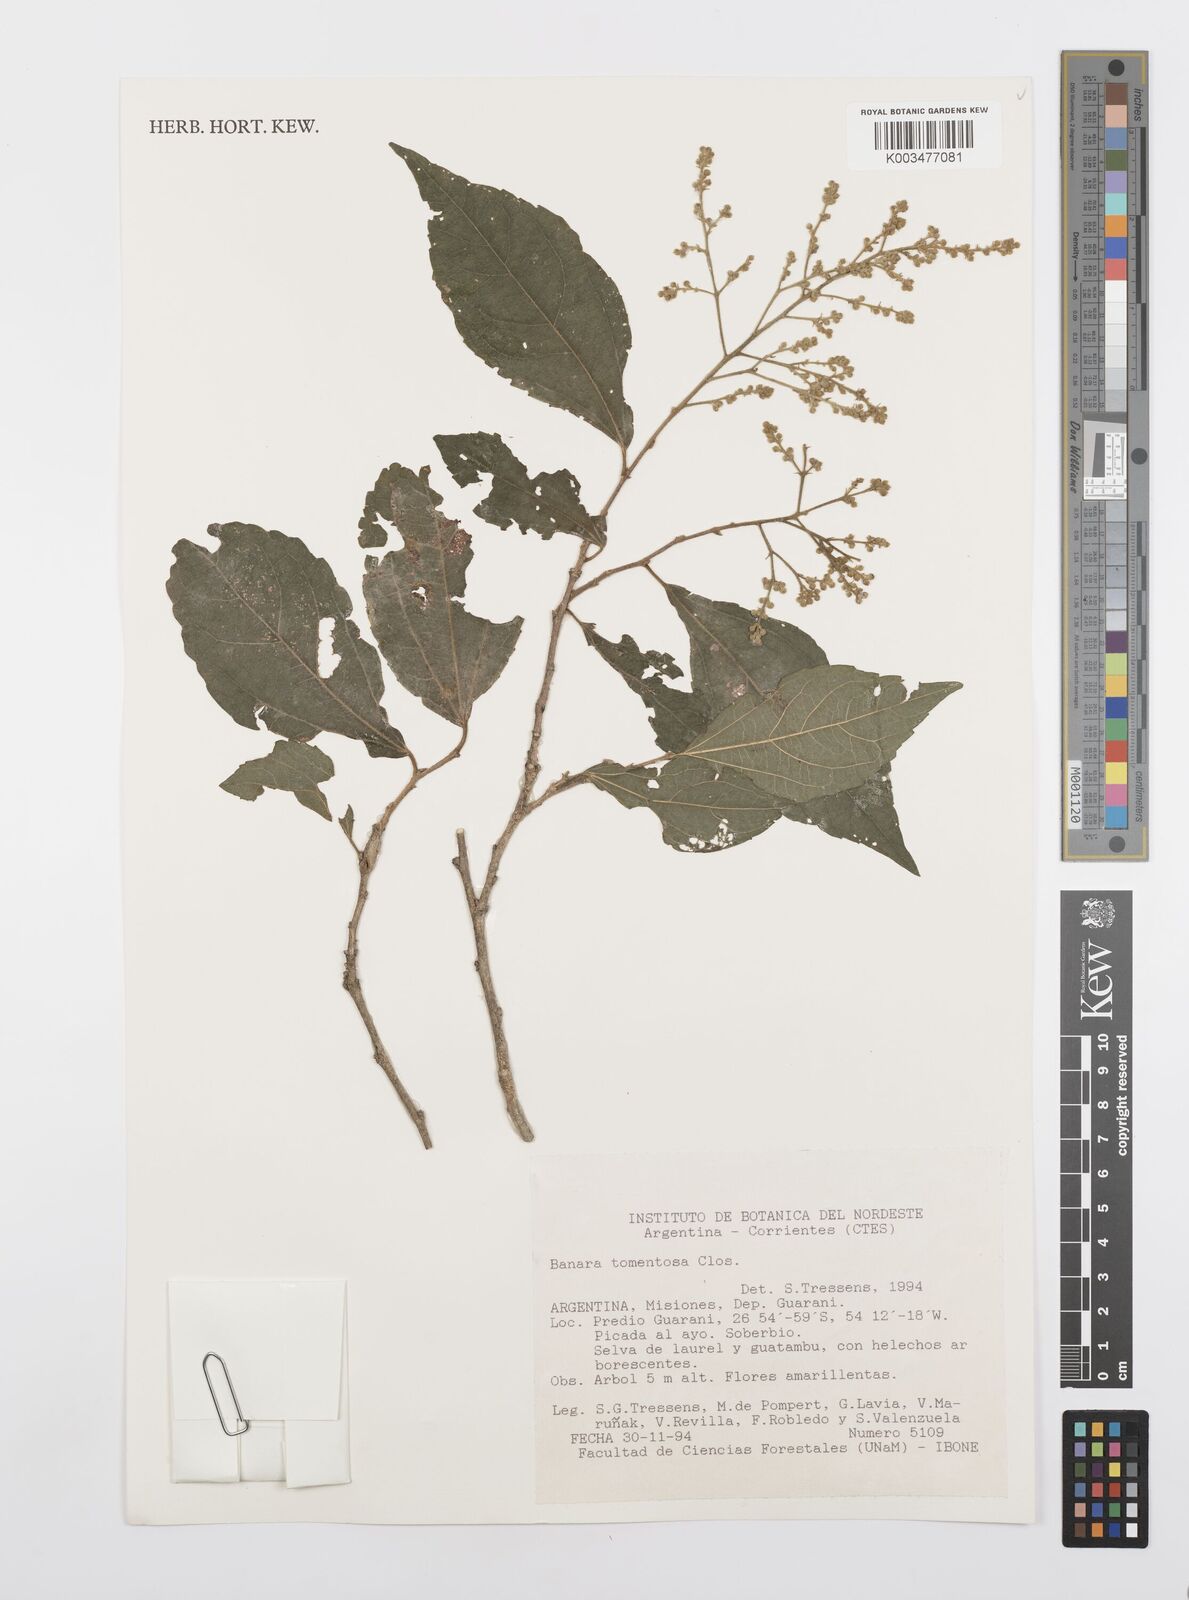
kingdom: Plantae
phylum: Tracheophyta
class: Magnoliopsida
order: Malpighiales
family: Salicaceae
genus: Banara
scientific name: Banara tomentosa
